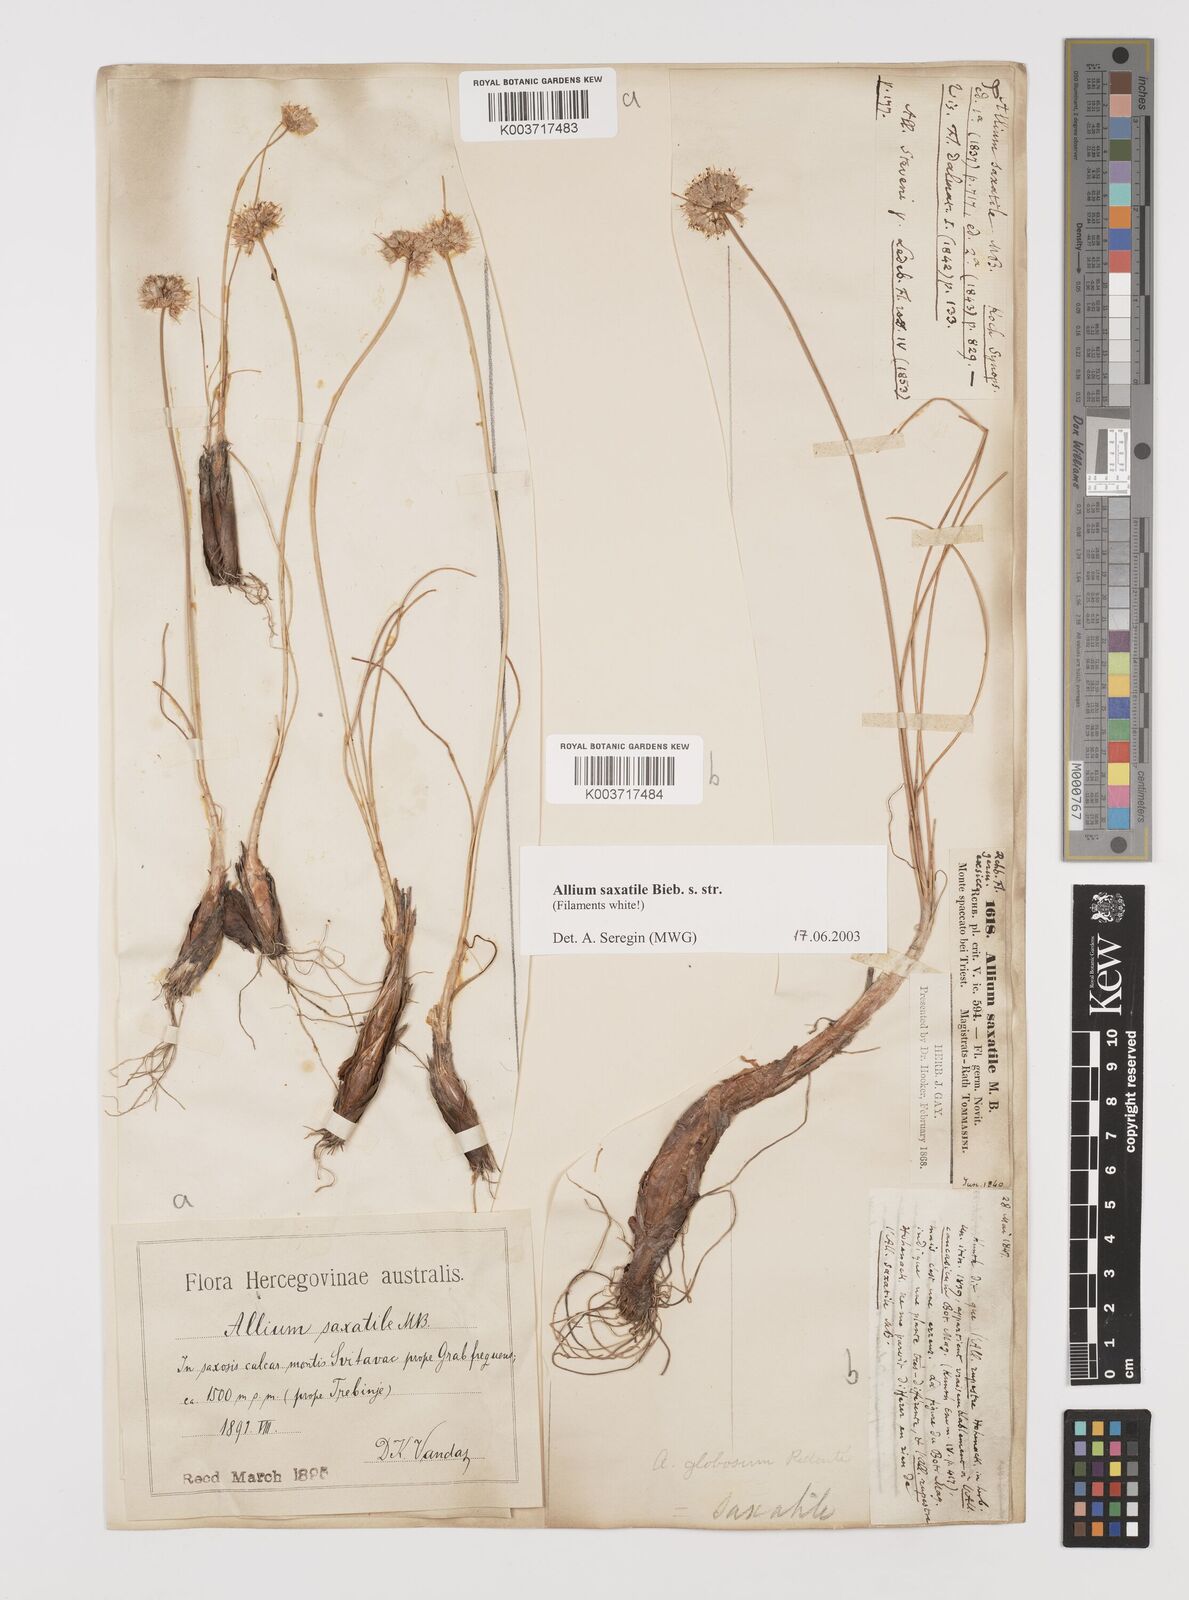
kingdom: Plantae
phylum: Tracheophyta
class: Liliopsida
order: Asparagales
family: Amaryllidaceae
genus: Allium
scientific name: Allium saxatile
